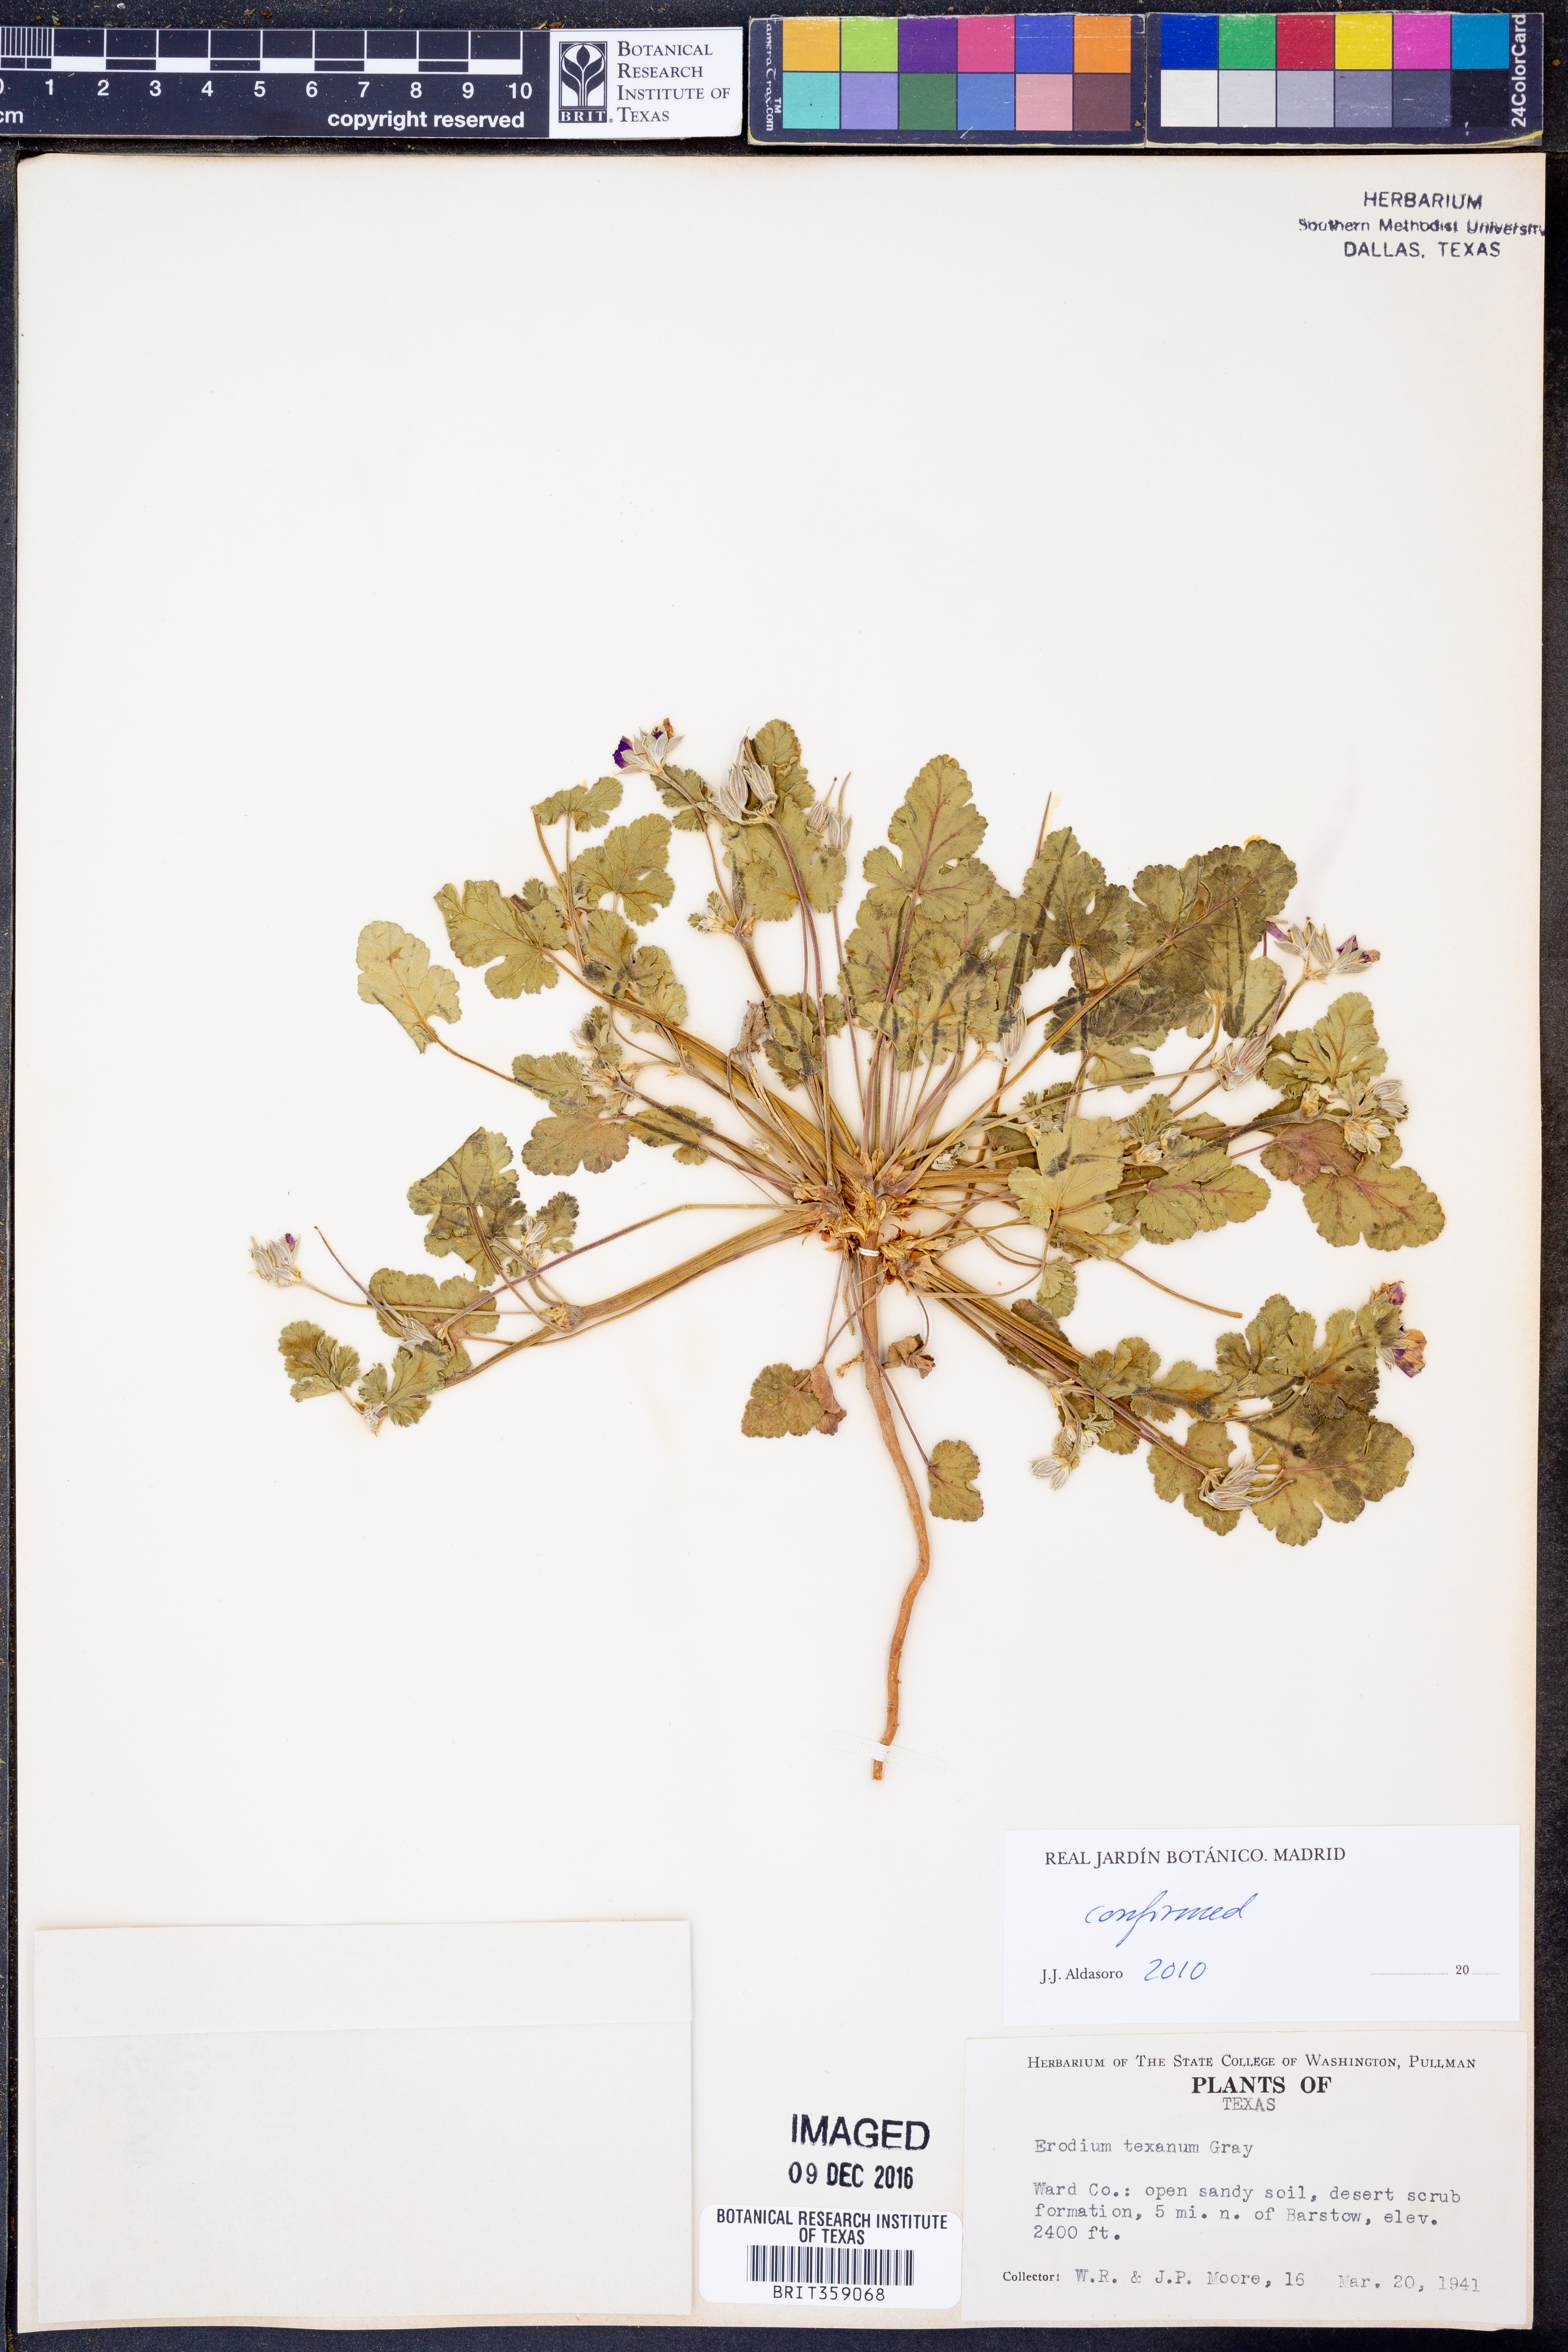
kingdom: Plantae
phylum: Tracheophyta
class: Magnoliopsida
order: Geraniales
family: Geraniaceae
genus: Erodium
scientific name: Erodium texanum
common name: Texas stork's-bill
